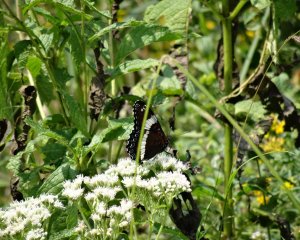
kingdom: Animalia
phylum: Arthropoda
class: Insecta
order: Lepidoptera
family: Nymphalidae
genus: Limenitis
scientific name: Limenitis arthemis
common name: Red-spotted Admiral
